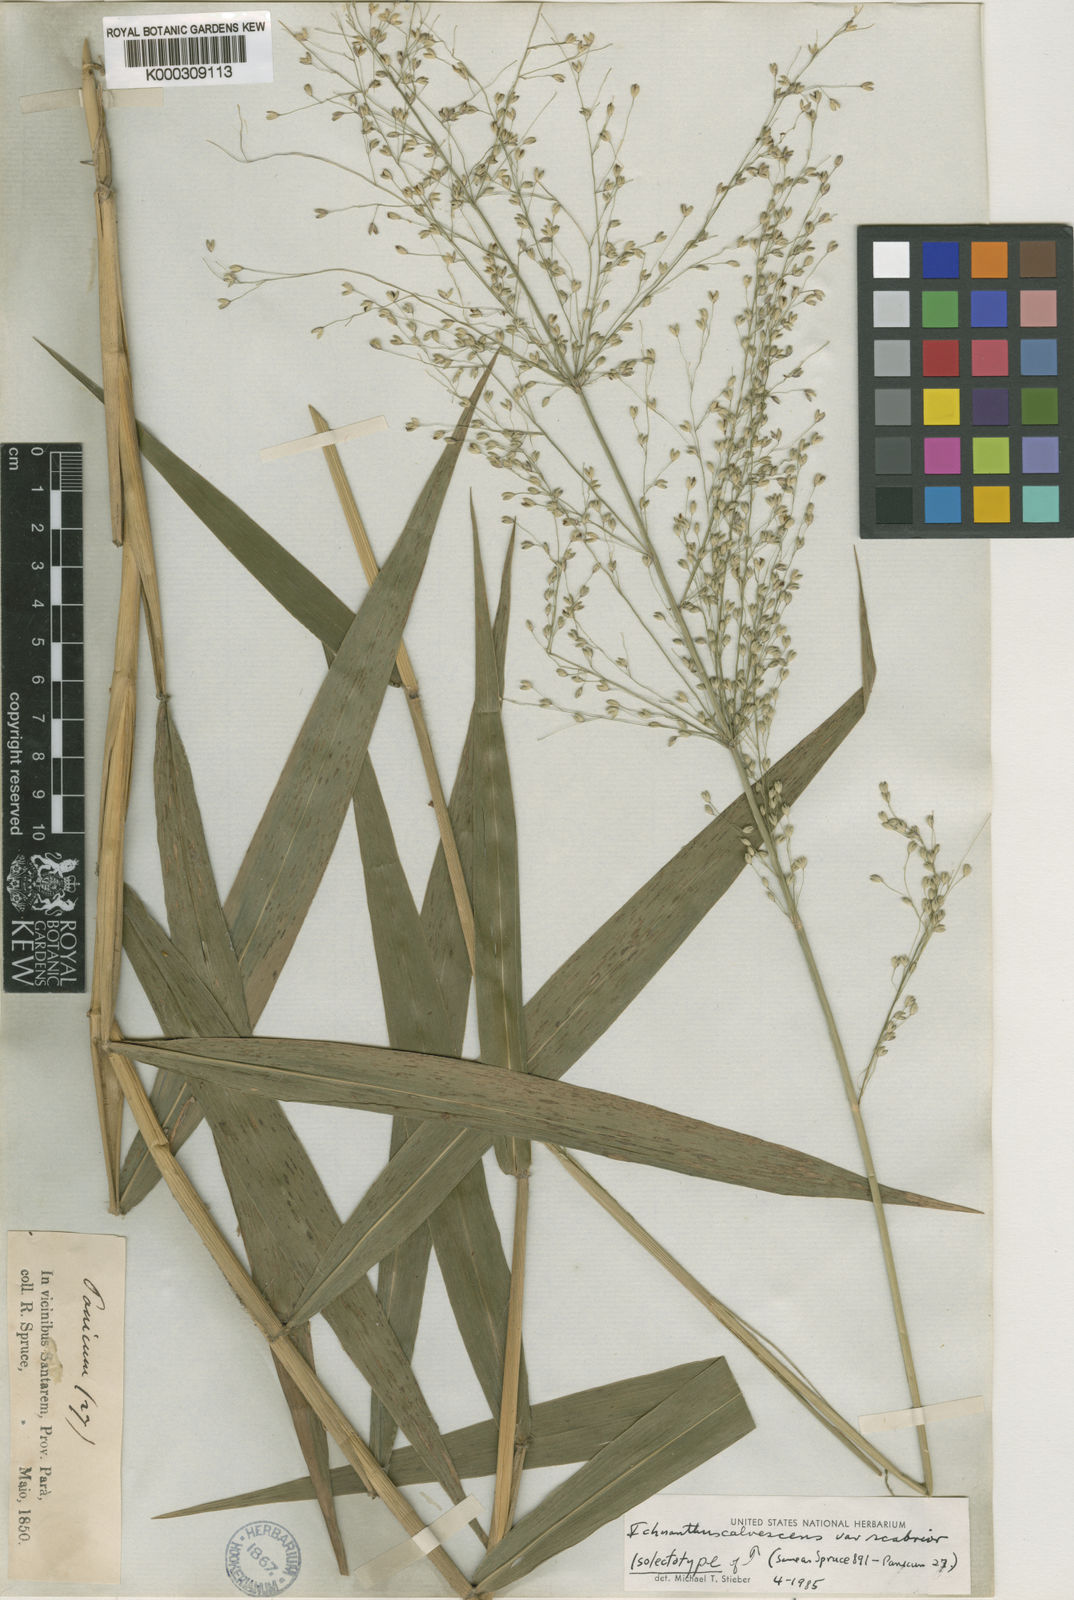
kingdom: Plantae
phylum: Tracheophyta
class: Liliopsida
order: Poales
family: Poaceae
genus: Ichnanthus
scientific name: Ichnanthus
